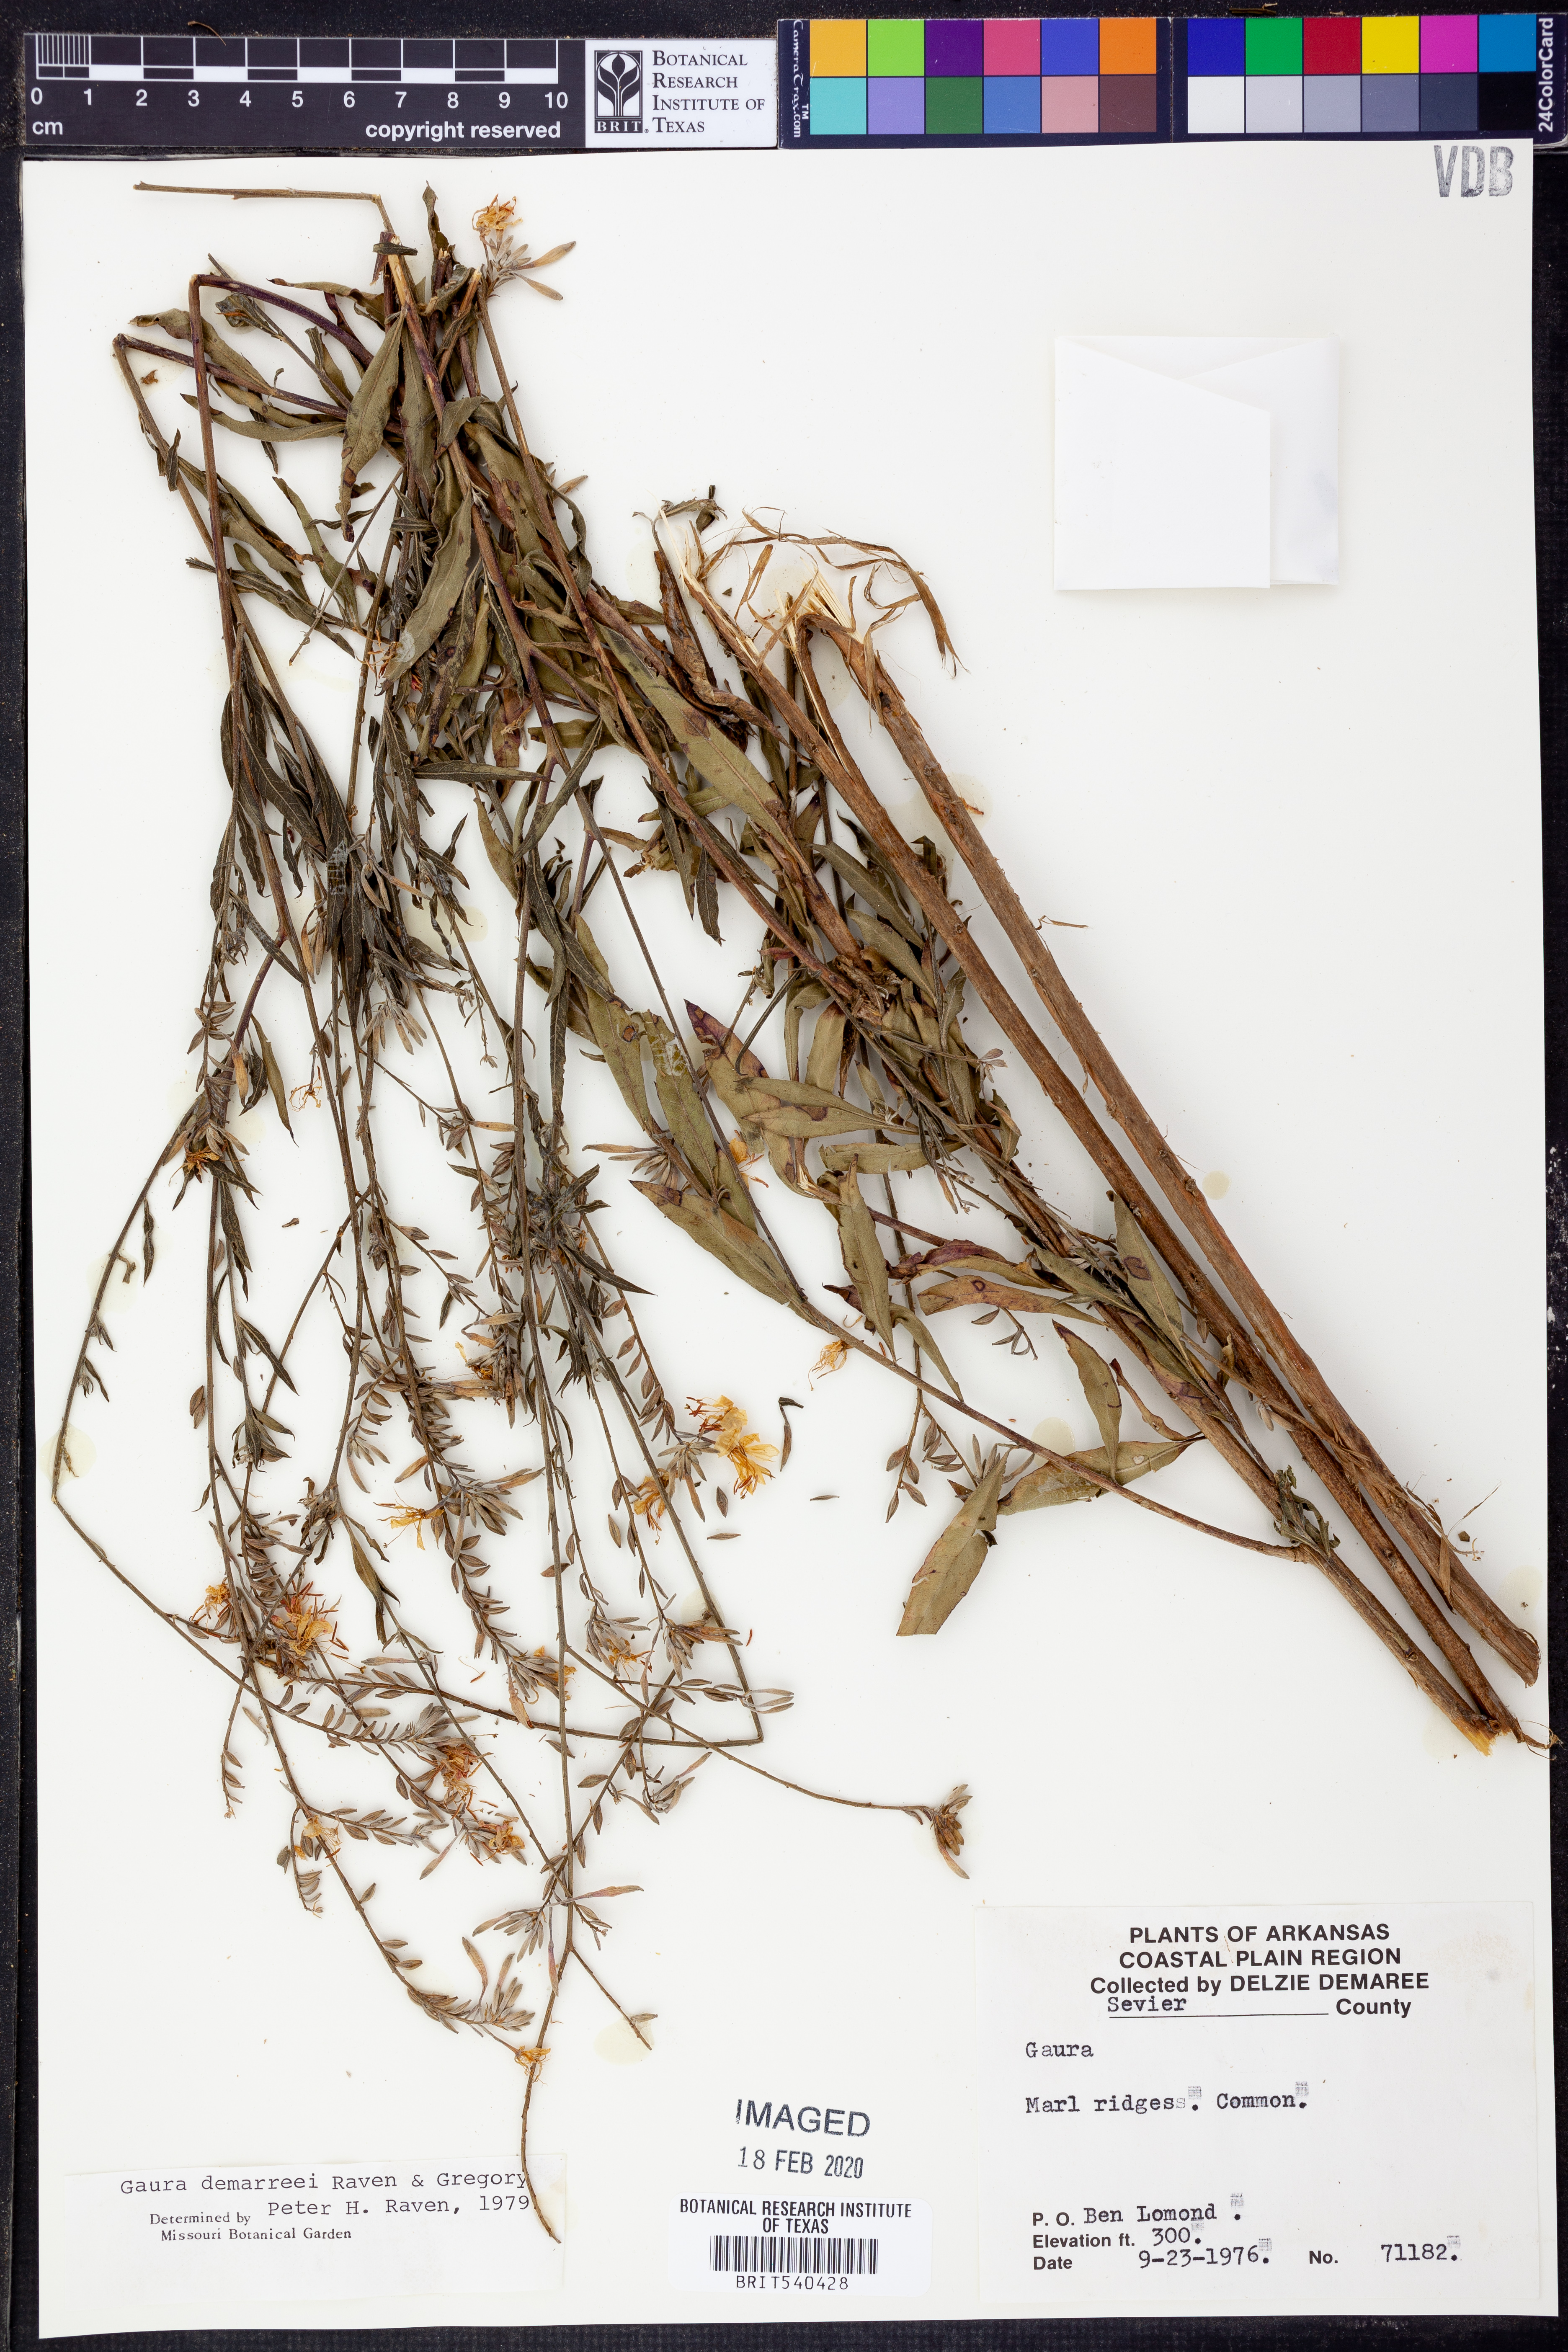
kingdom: Plantae
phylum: Tracheophyta
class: Magnoliopsida
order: Myrtales
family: Onagraceae
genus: Oenothera
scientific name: Oenothera demareei
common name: Demaree's beeblossom
